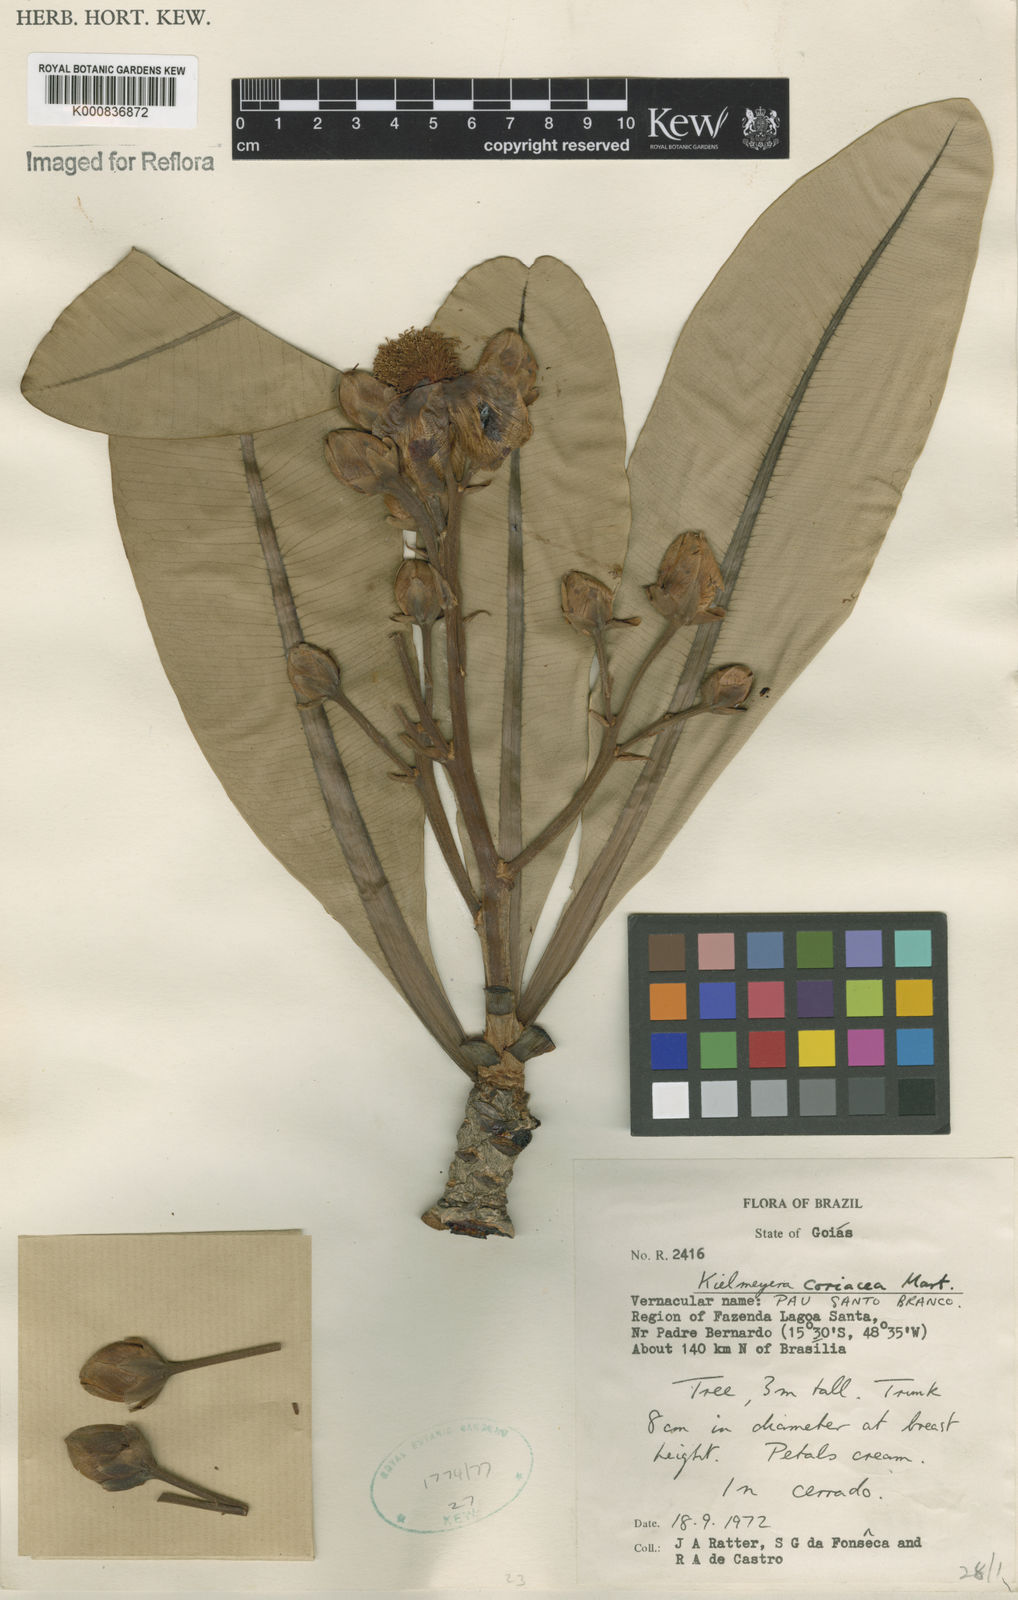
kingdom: Plantae
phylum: Tracheophyta
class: Magnoliopsida
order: Malpighiales
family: Calophyllaceae
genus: Kielmeyera
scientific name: Kielmeyera coriacea
